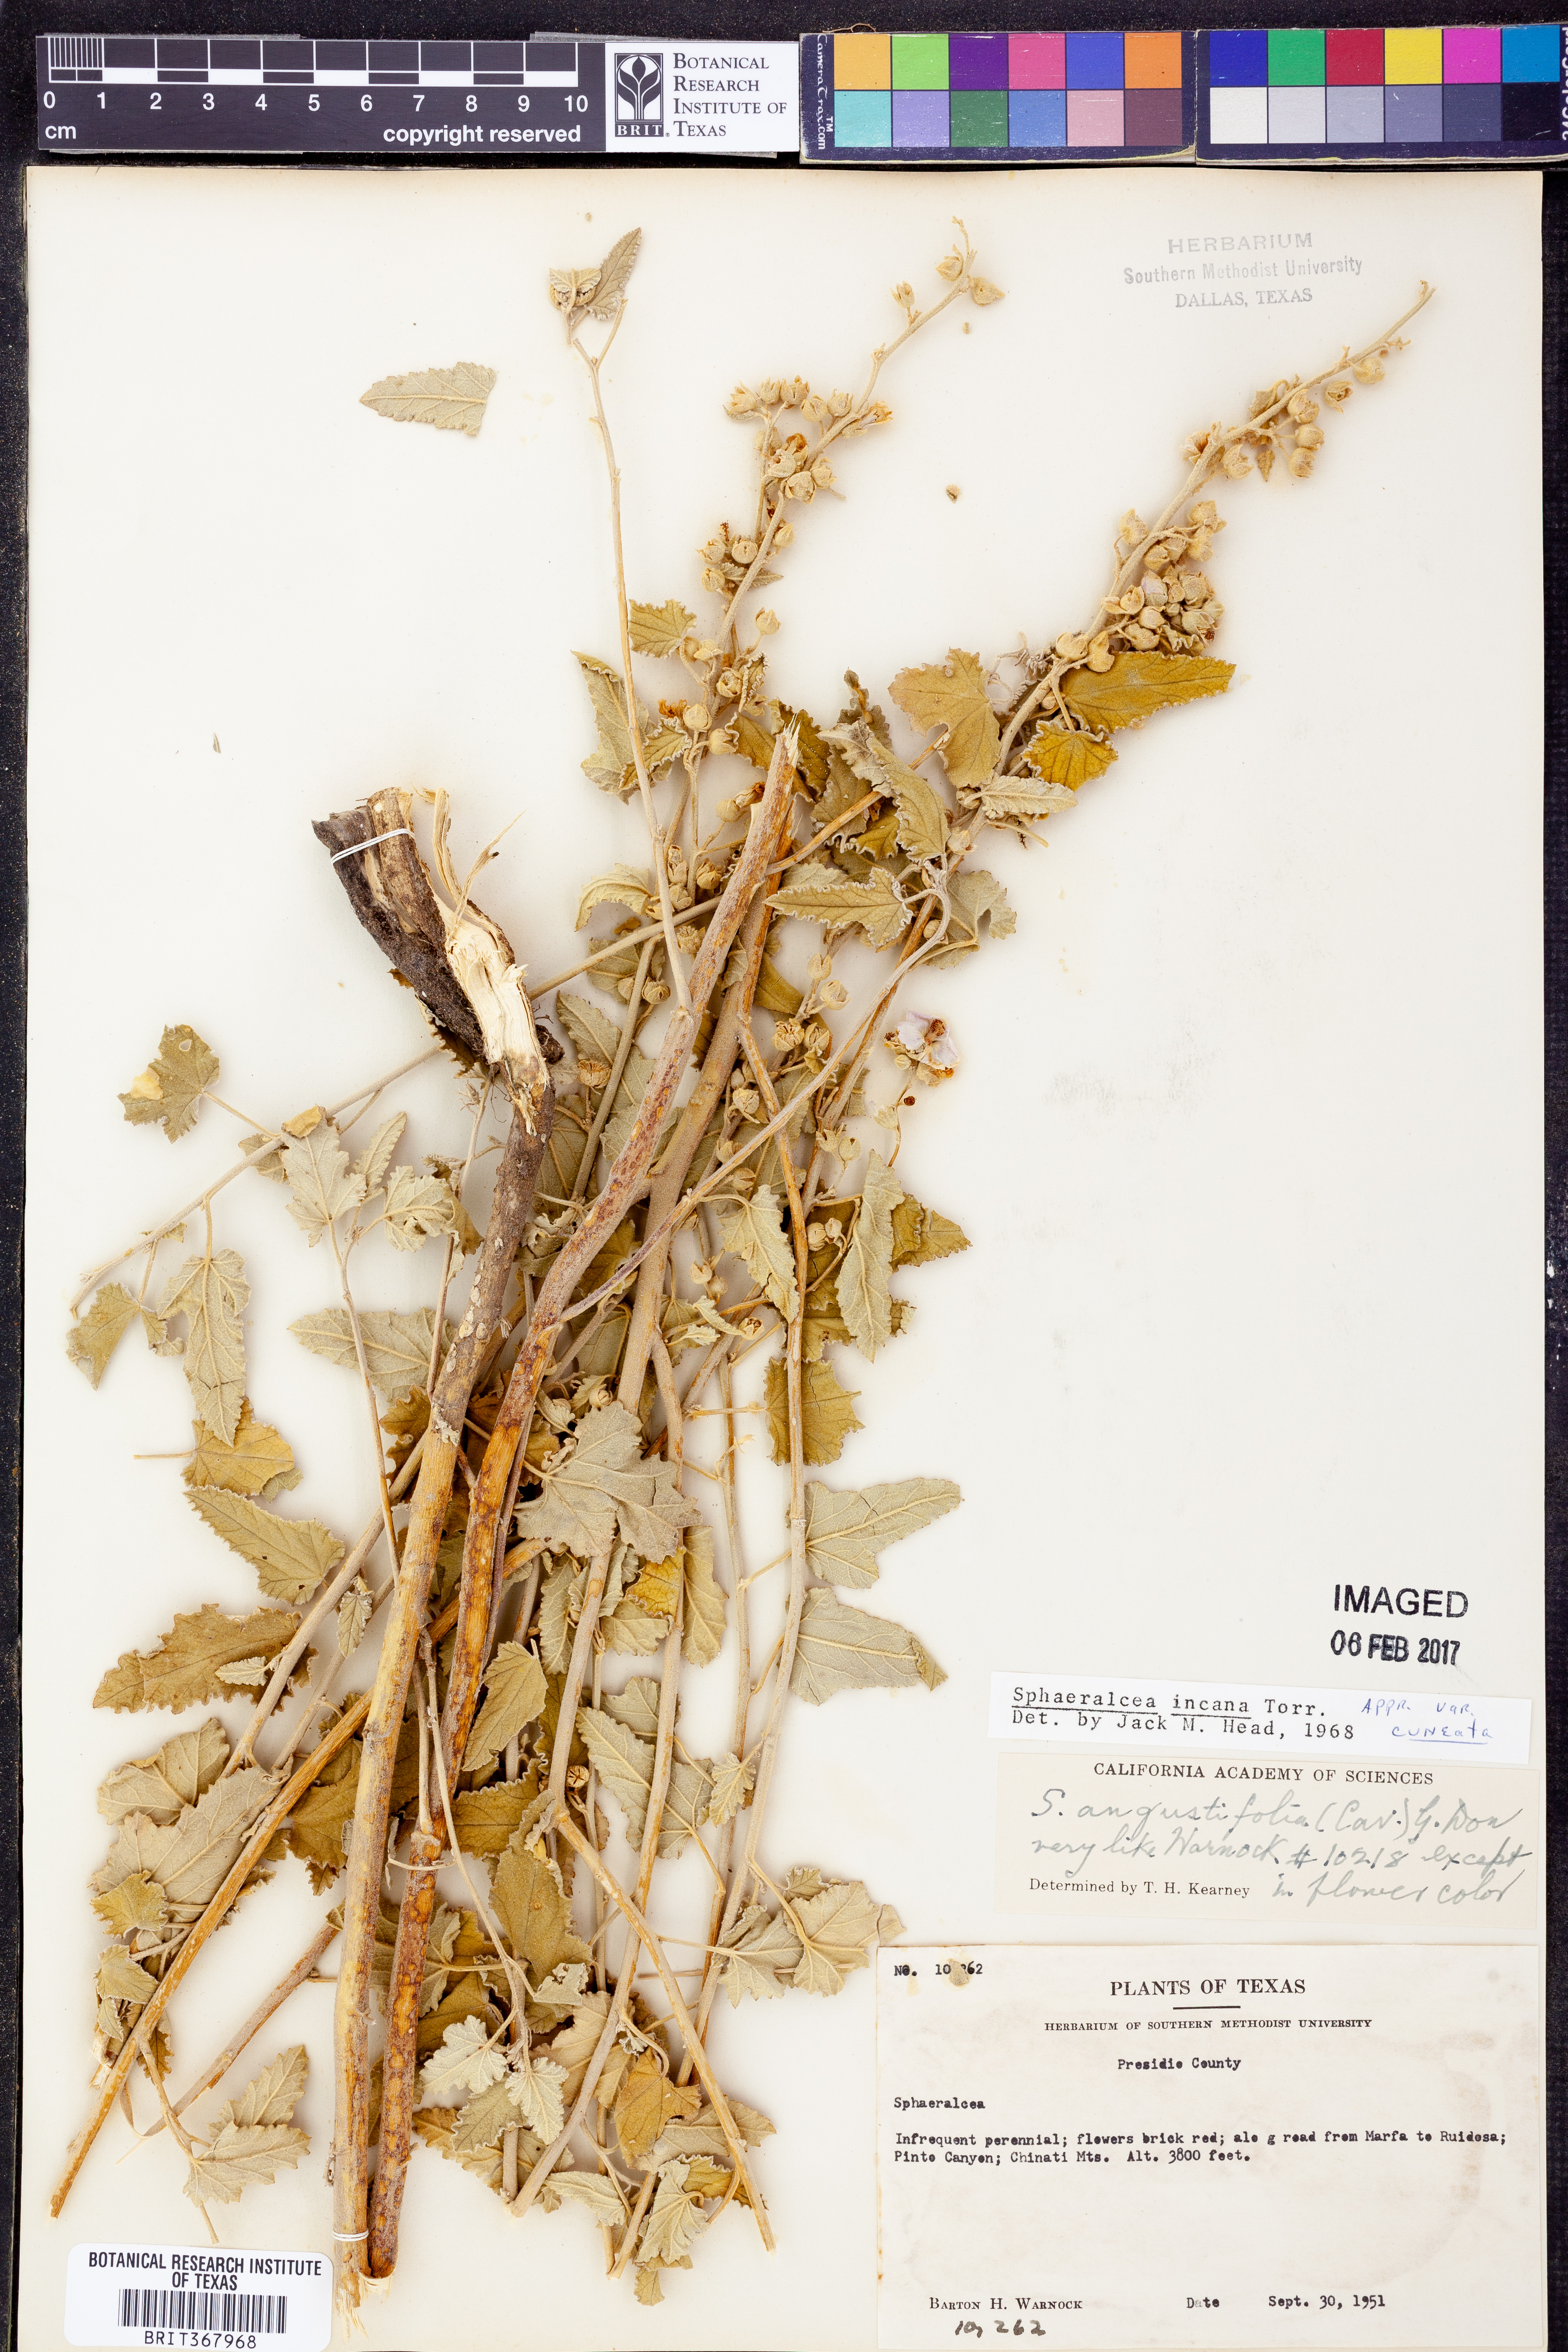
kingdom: Plantae
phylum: Tracheophyta
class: Magnoliopsida
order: Malvales
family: Malvaceae
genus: Sphaeralcea
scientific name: Sphaeralcea incana
